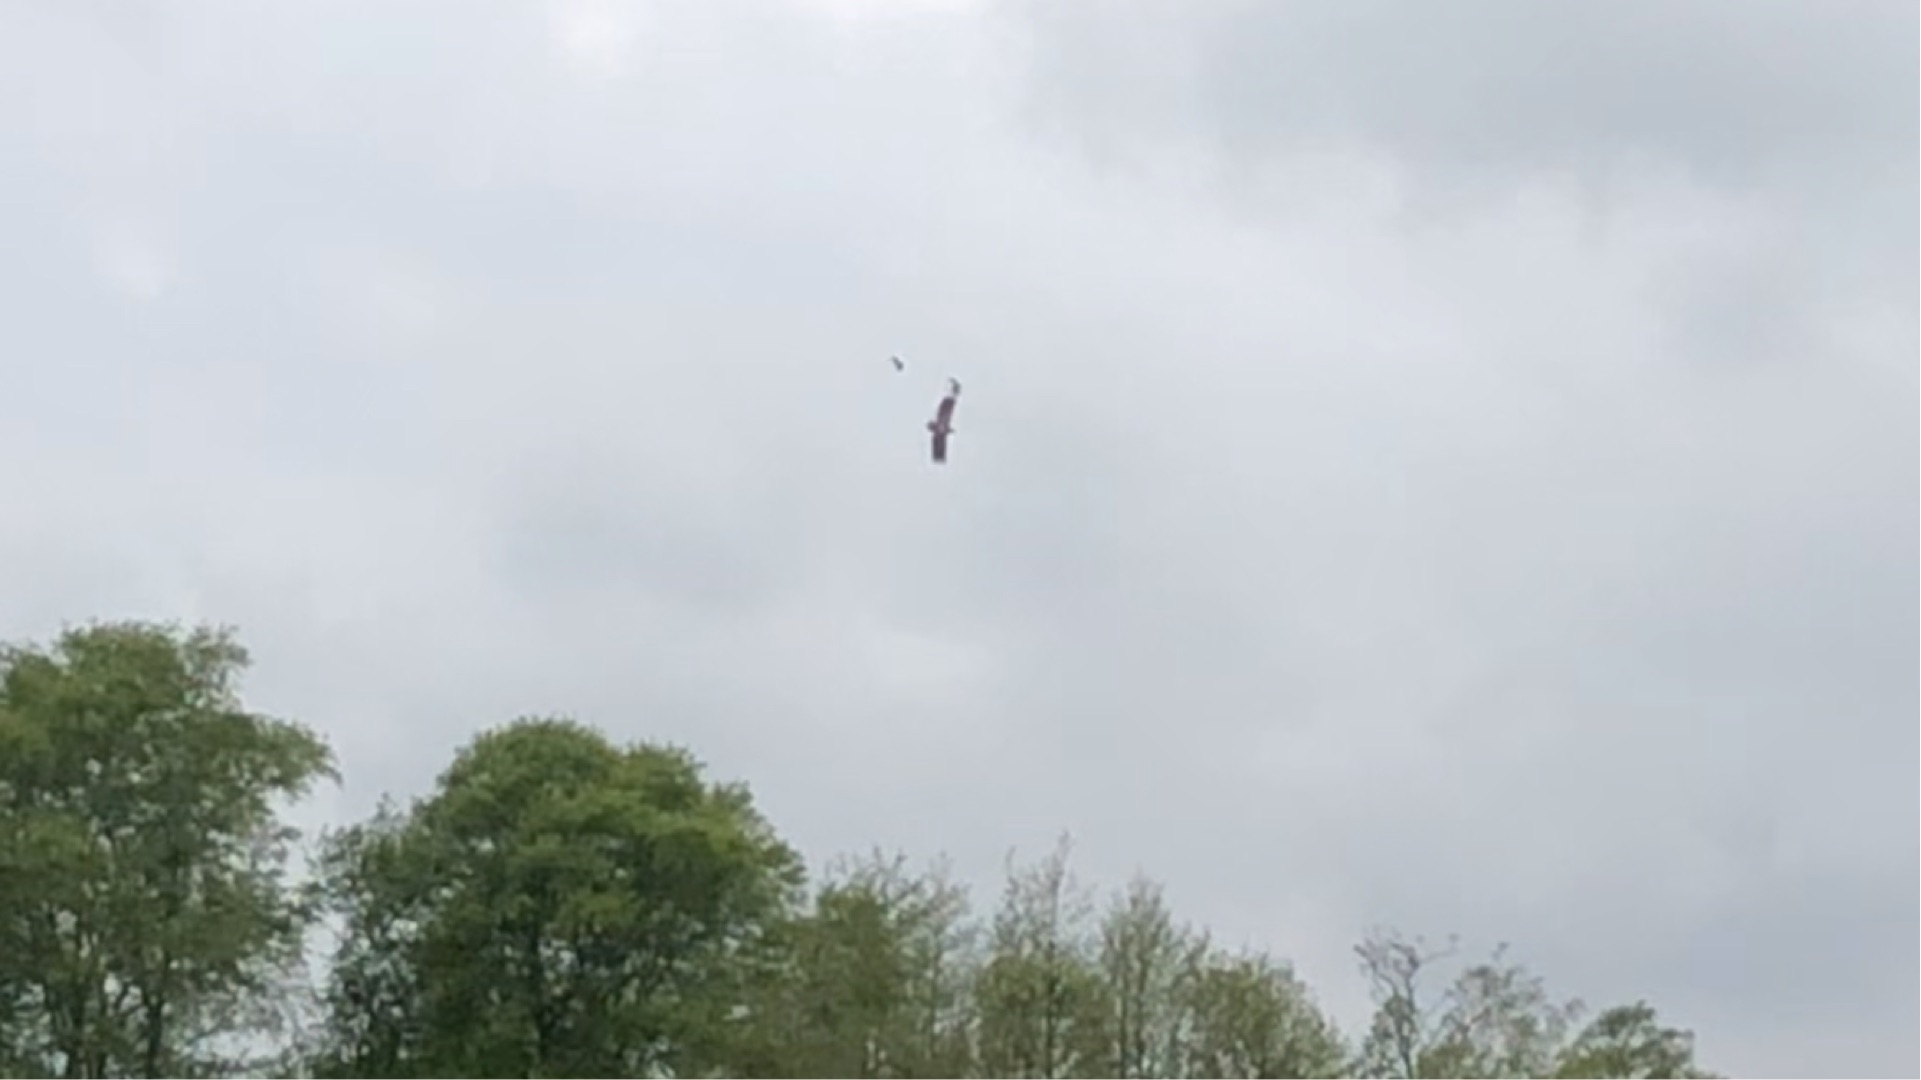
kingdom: Animalia
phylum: Chordata
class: Aves
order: Accipitriformes
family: Accipitridae
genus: Haliaeetus
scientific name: Haliaeetus albicilla
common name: Havørn
